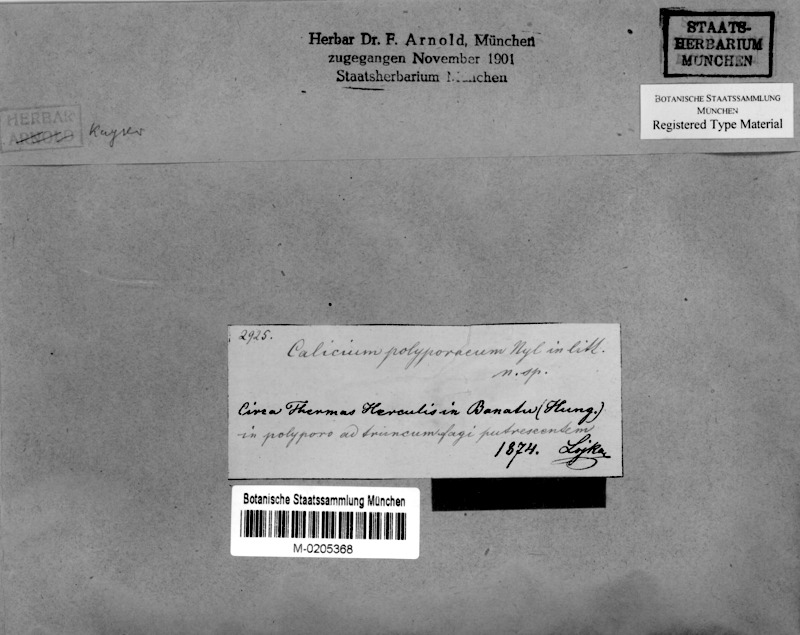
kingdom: Fungi
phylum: Ascomycota
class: Eurotiomycetes
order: Mycocaliciales
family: Mycocaliciaceae
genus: Phaeocalicium
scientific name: Phaeocalicium polyporaeum
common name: Fairy pins
